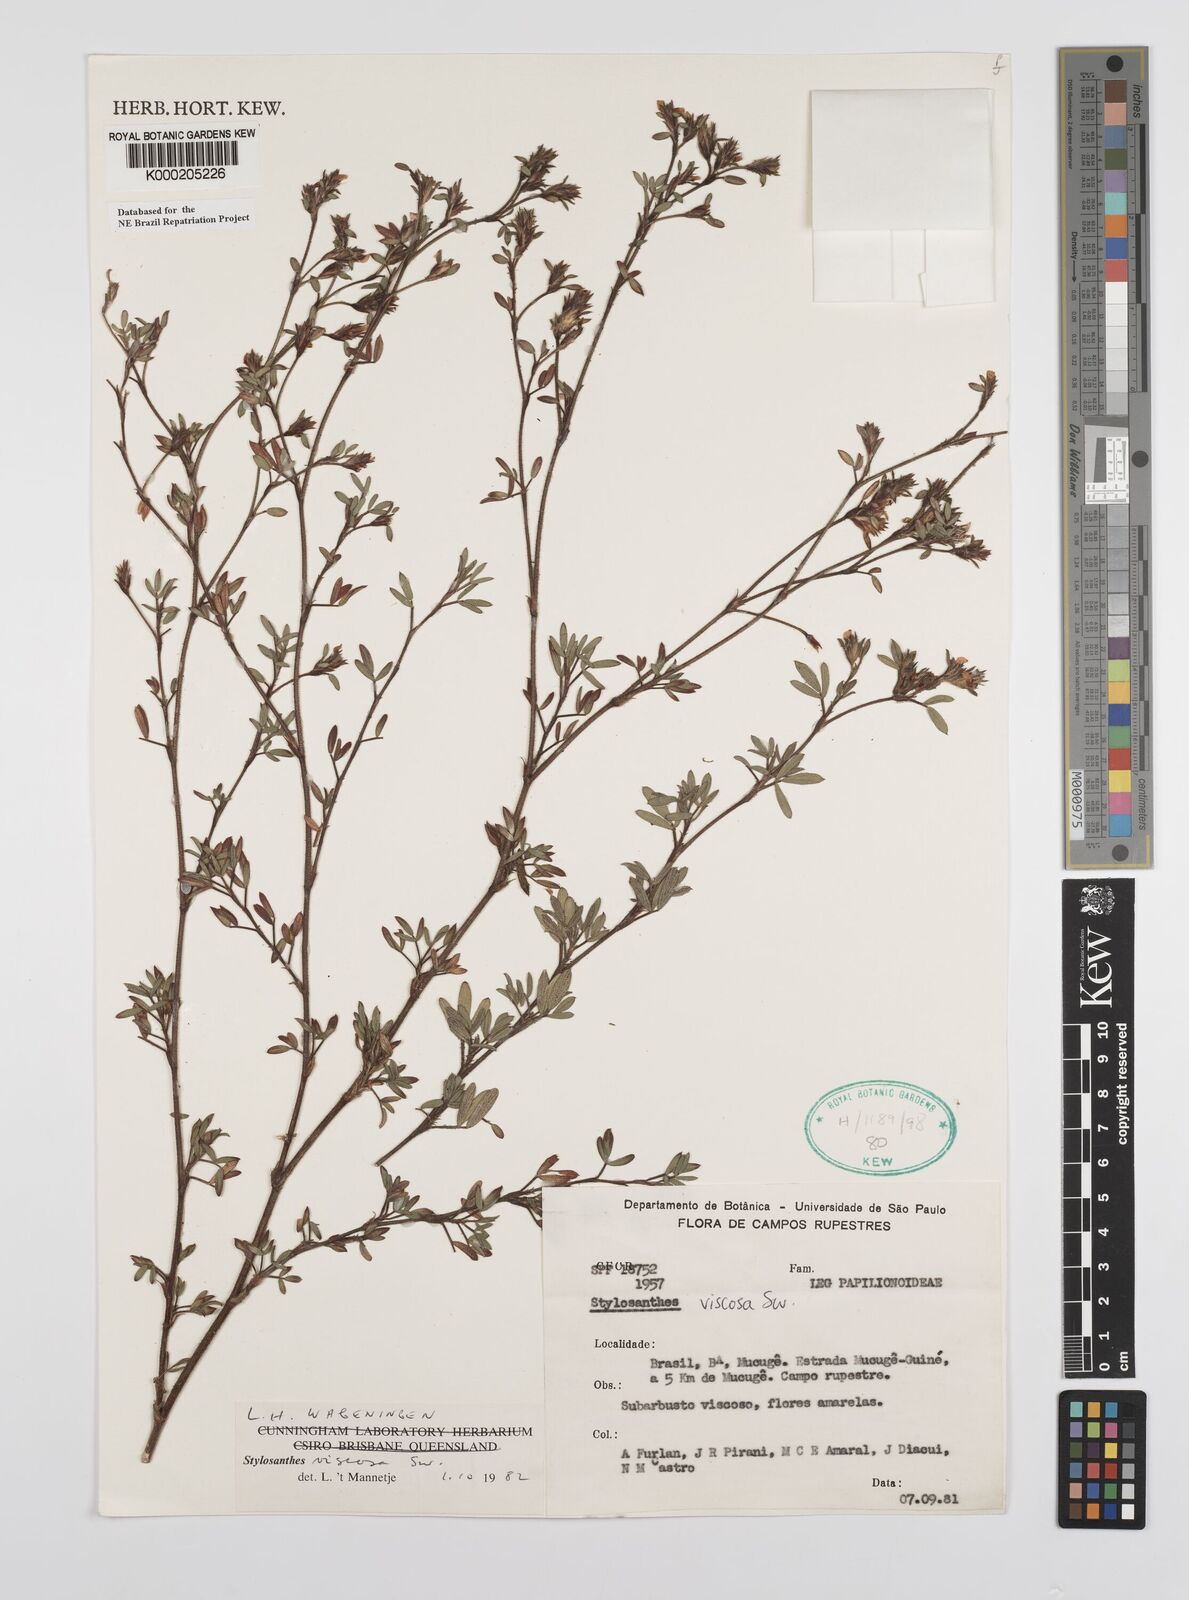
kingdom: Plantae
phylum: Tracheophyta
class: Magnoliopsida
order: Fabales
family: Fabaceae
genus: Stylosanthes
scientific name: Stylosanthes viscosa
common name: Viscid pencil-flower
